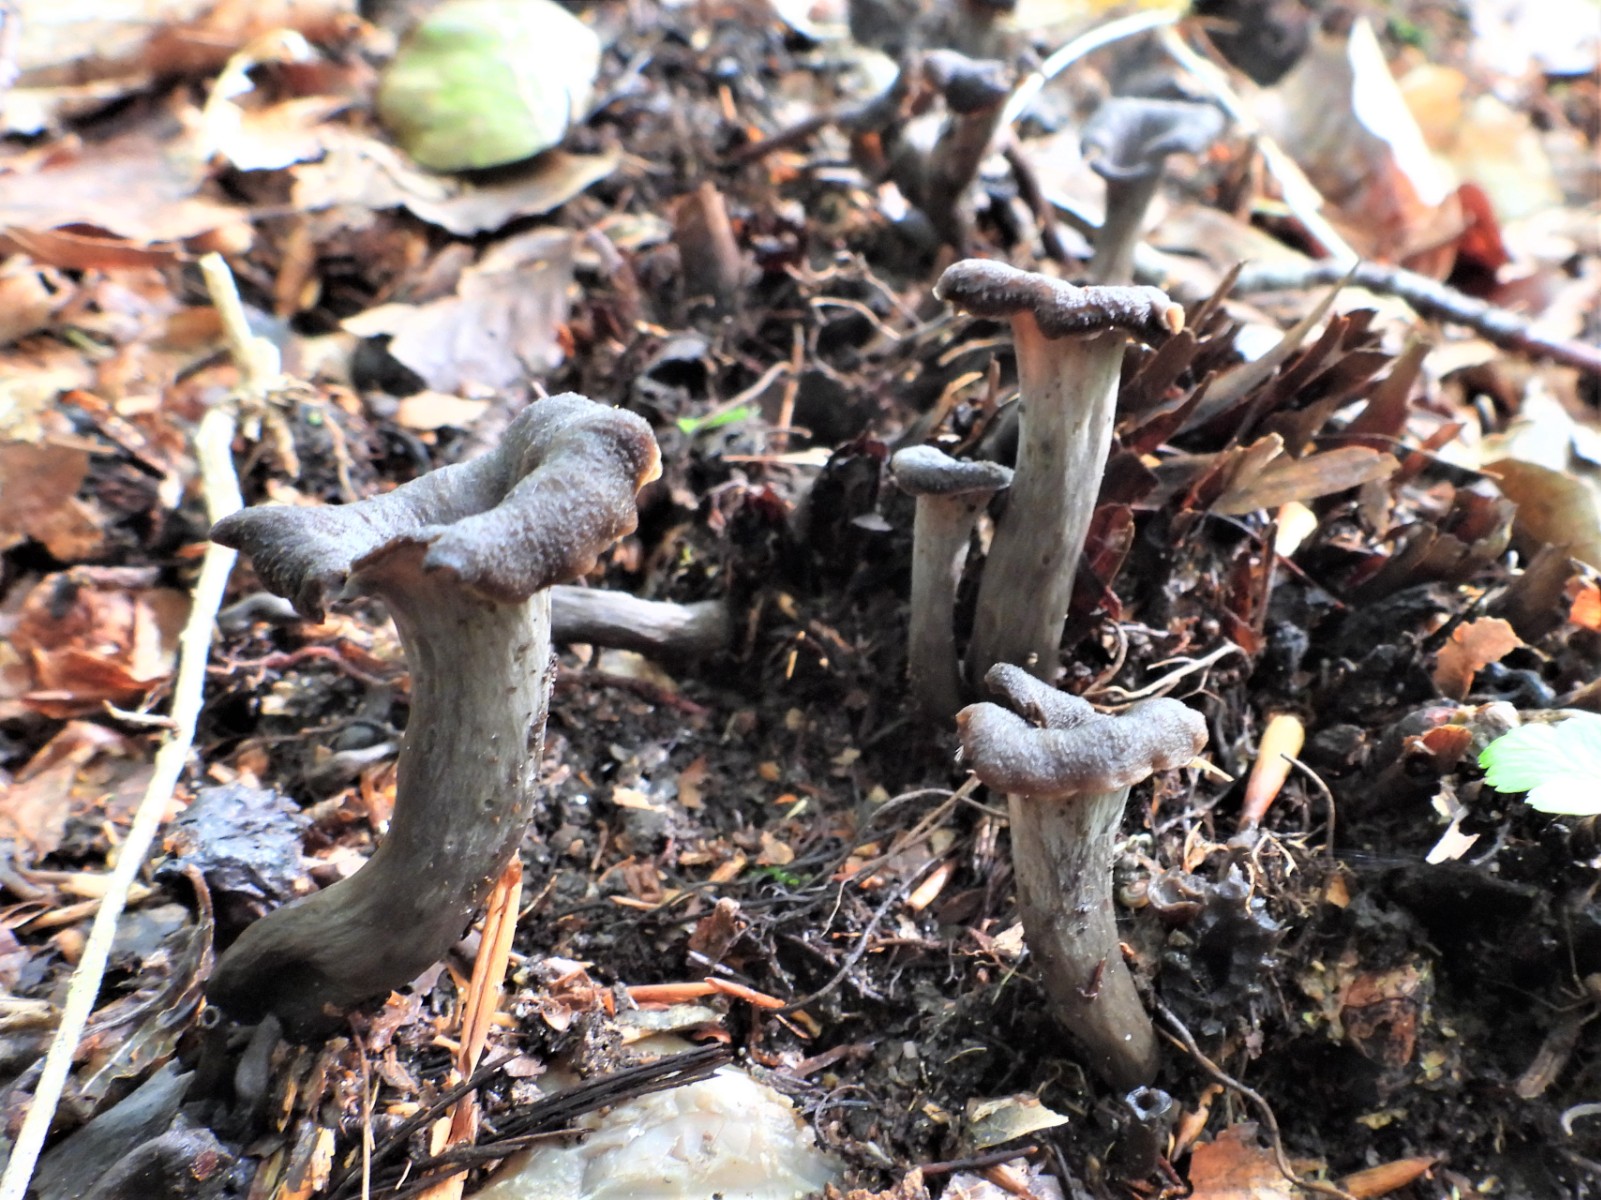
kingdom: Fungi
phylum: Basidiomycota
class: Agaricomycetes
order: Cantharellales
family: Hydnaceae
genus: Craterellus
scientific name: Craterellus cornucopioides
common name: trompetsvamp
